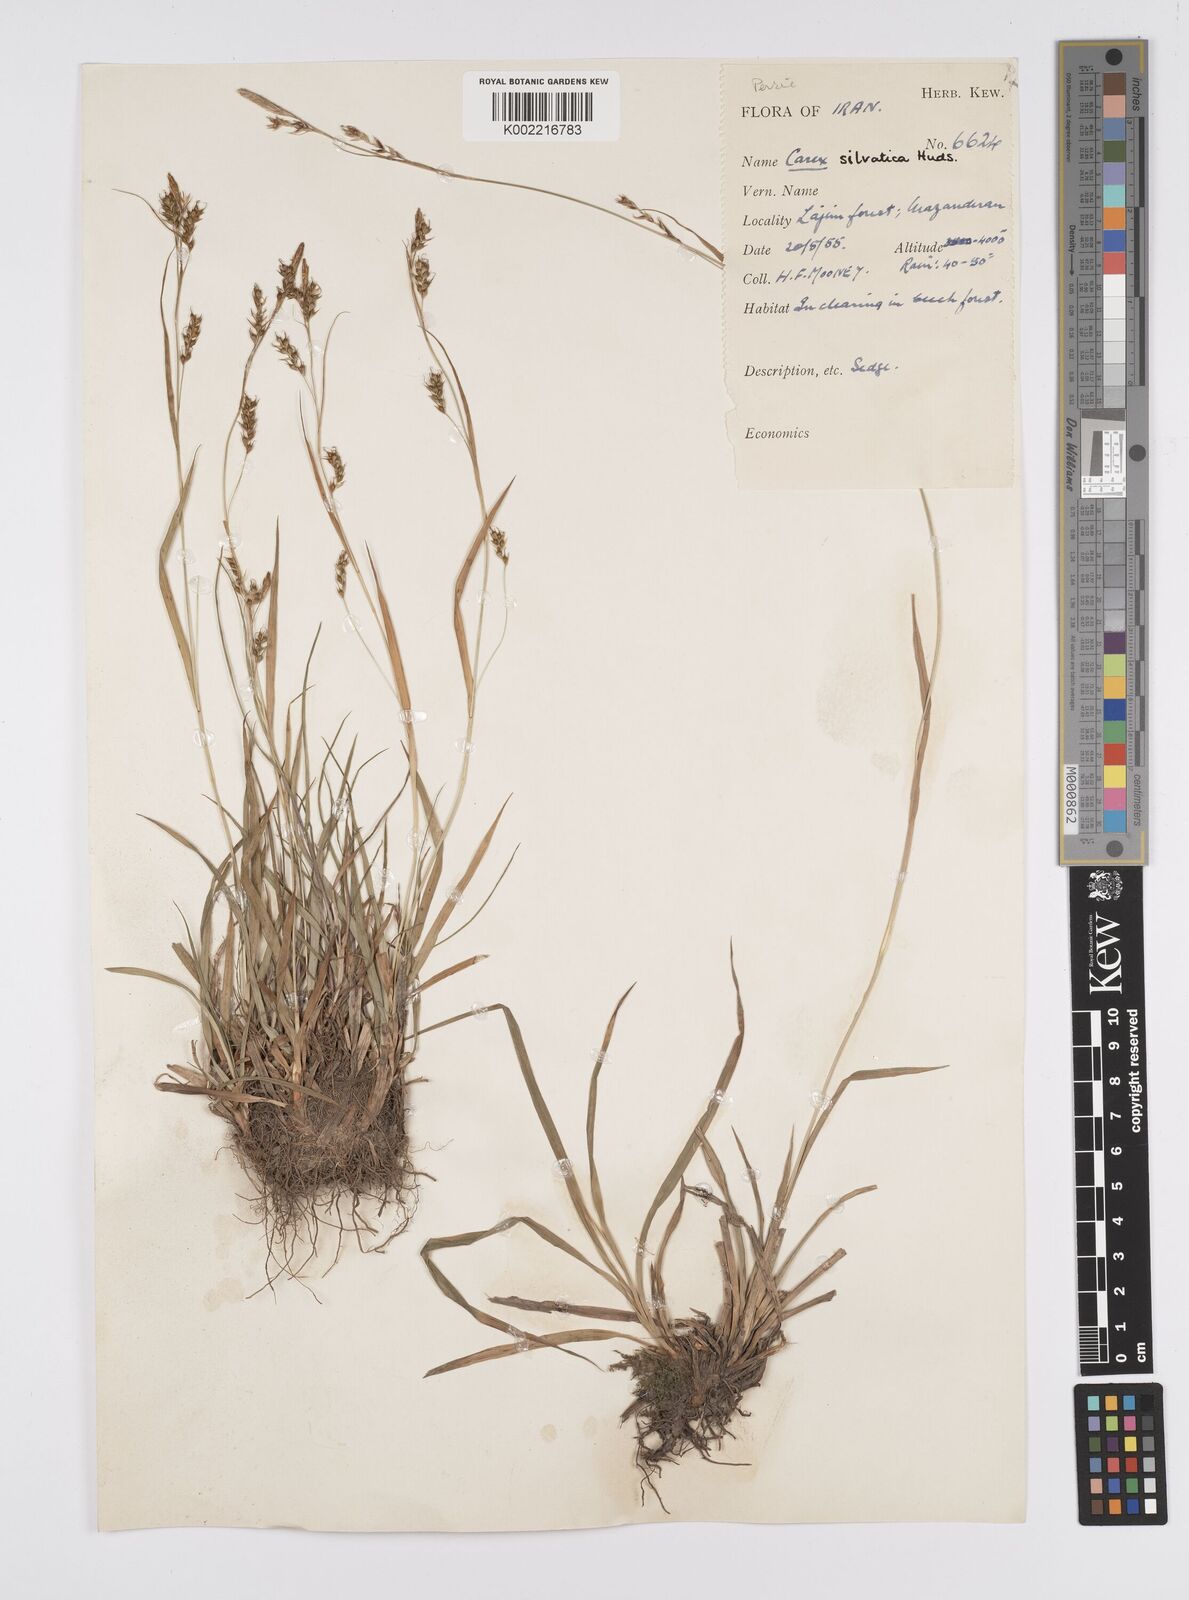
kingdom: Plantae
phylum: Tracheophyta
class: Liliopsida
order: Poales
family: Cyperaceae
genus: Carex
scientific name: Carex sylvatica
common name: Wood-sedge
